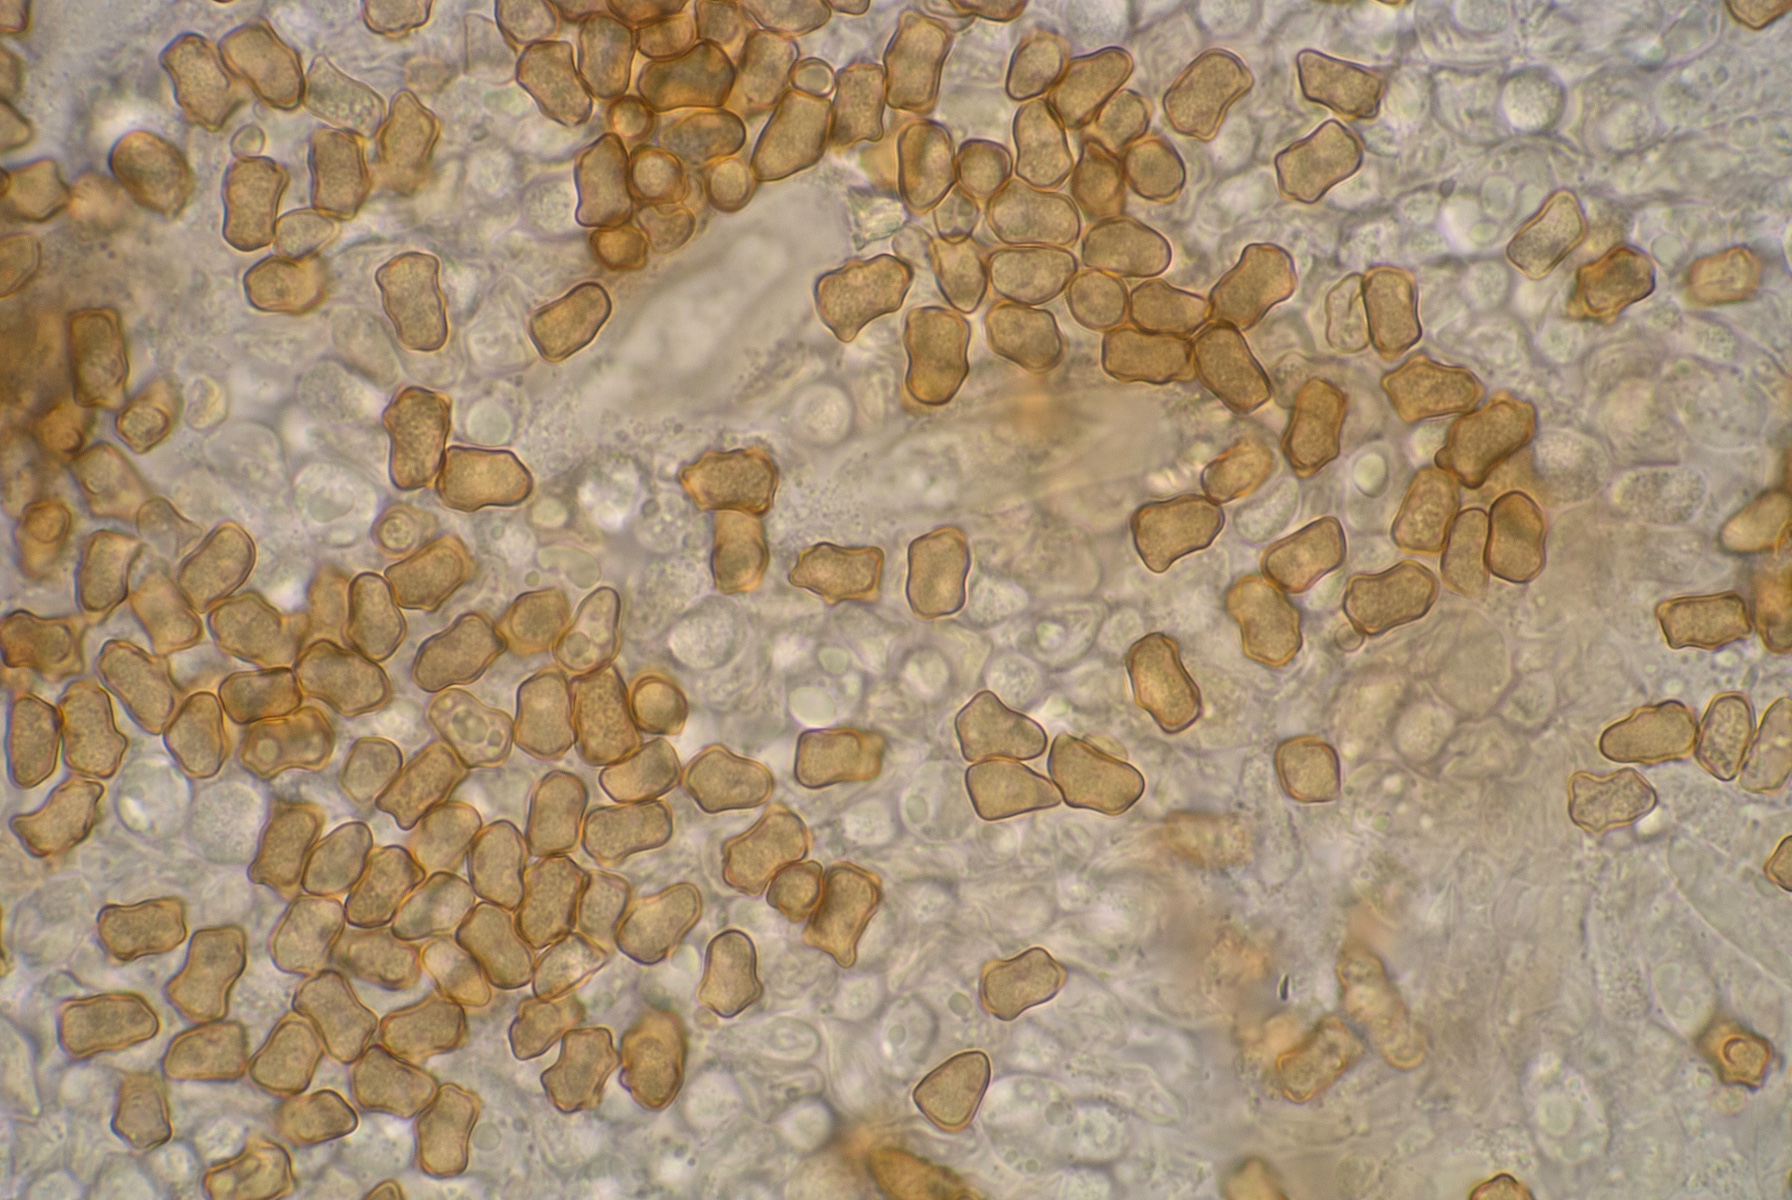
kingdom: Fungi
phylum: Basidiomycota
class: Agaricomycetes
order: Agaricales
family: Inocybaceae
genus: Inocybe
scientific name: Inocybe giacomi
